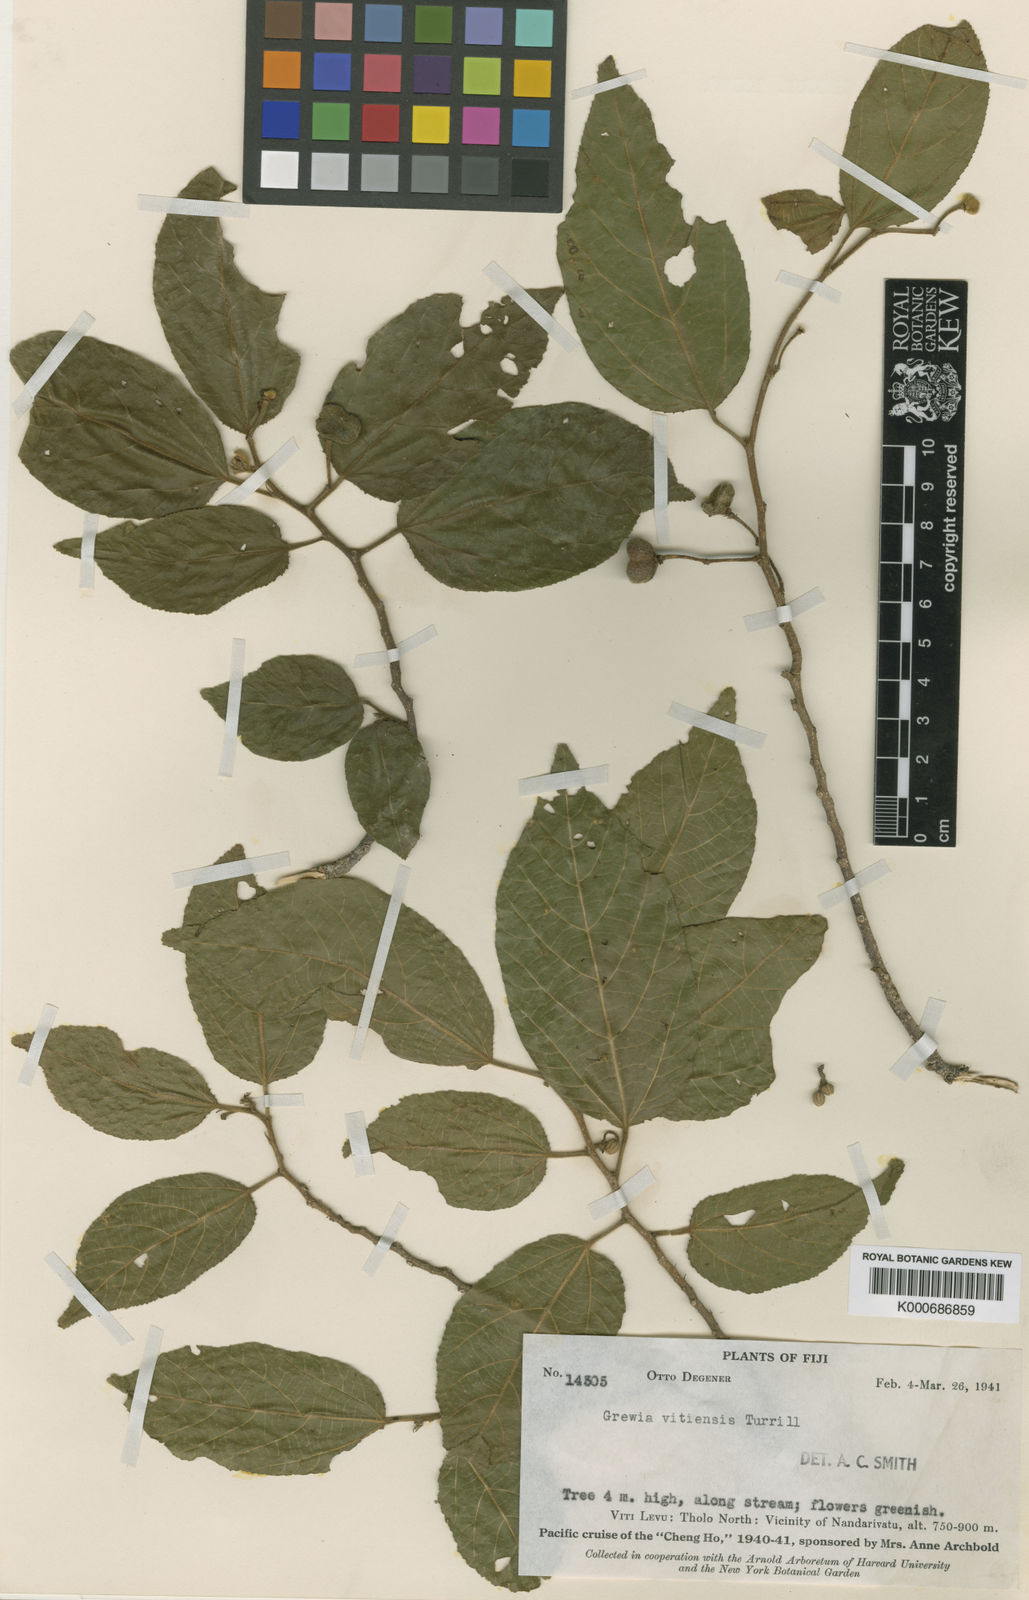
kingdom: Plantae
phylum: Tracheophyta
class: Magnoliopsida
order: Malvales
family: Malvaceae
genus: Grewia
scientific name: Grewia vitiensis
